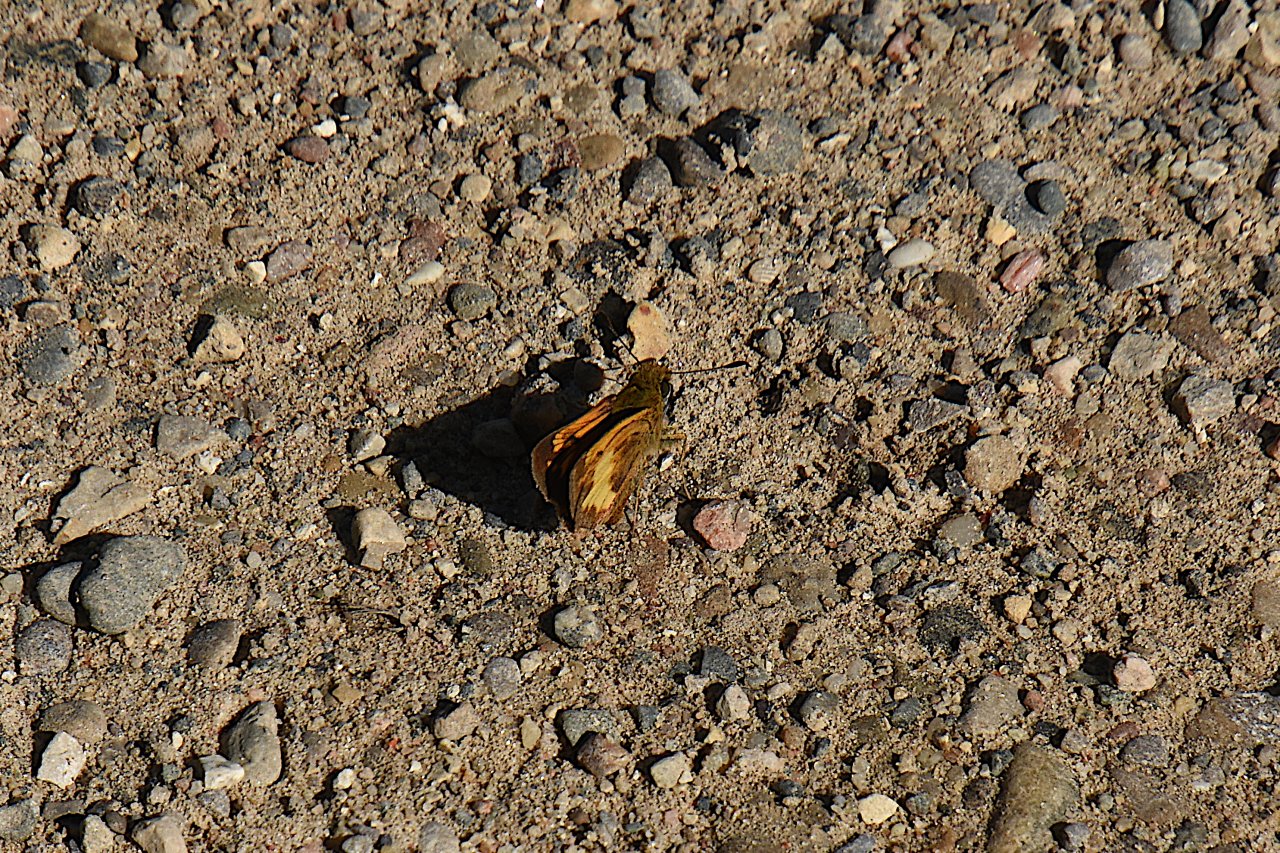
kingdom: Animalia
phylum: Arthropoda
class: Insecta
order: Lepidoptera
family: Hesperiidae
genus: Lon
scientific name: Lon hobomok
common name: Hobomok Skipper
